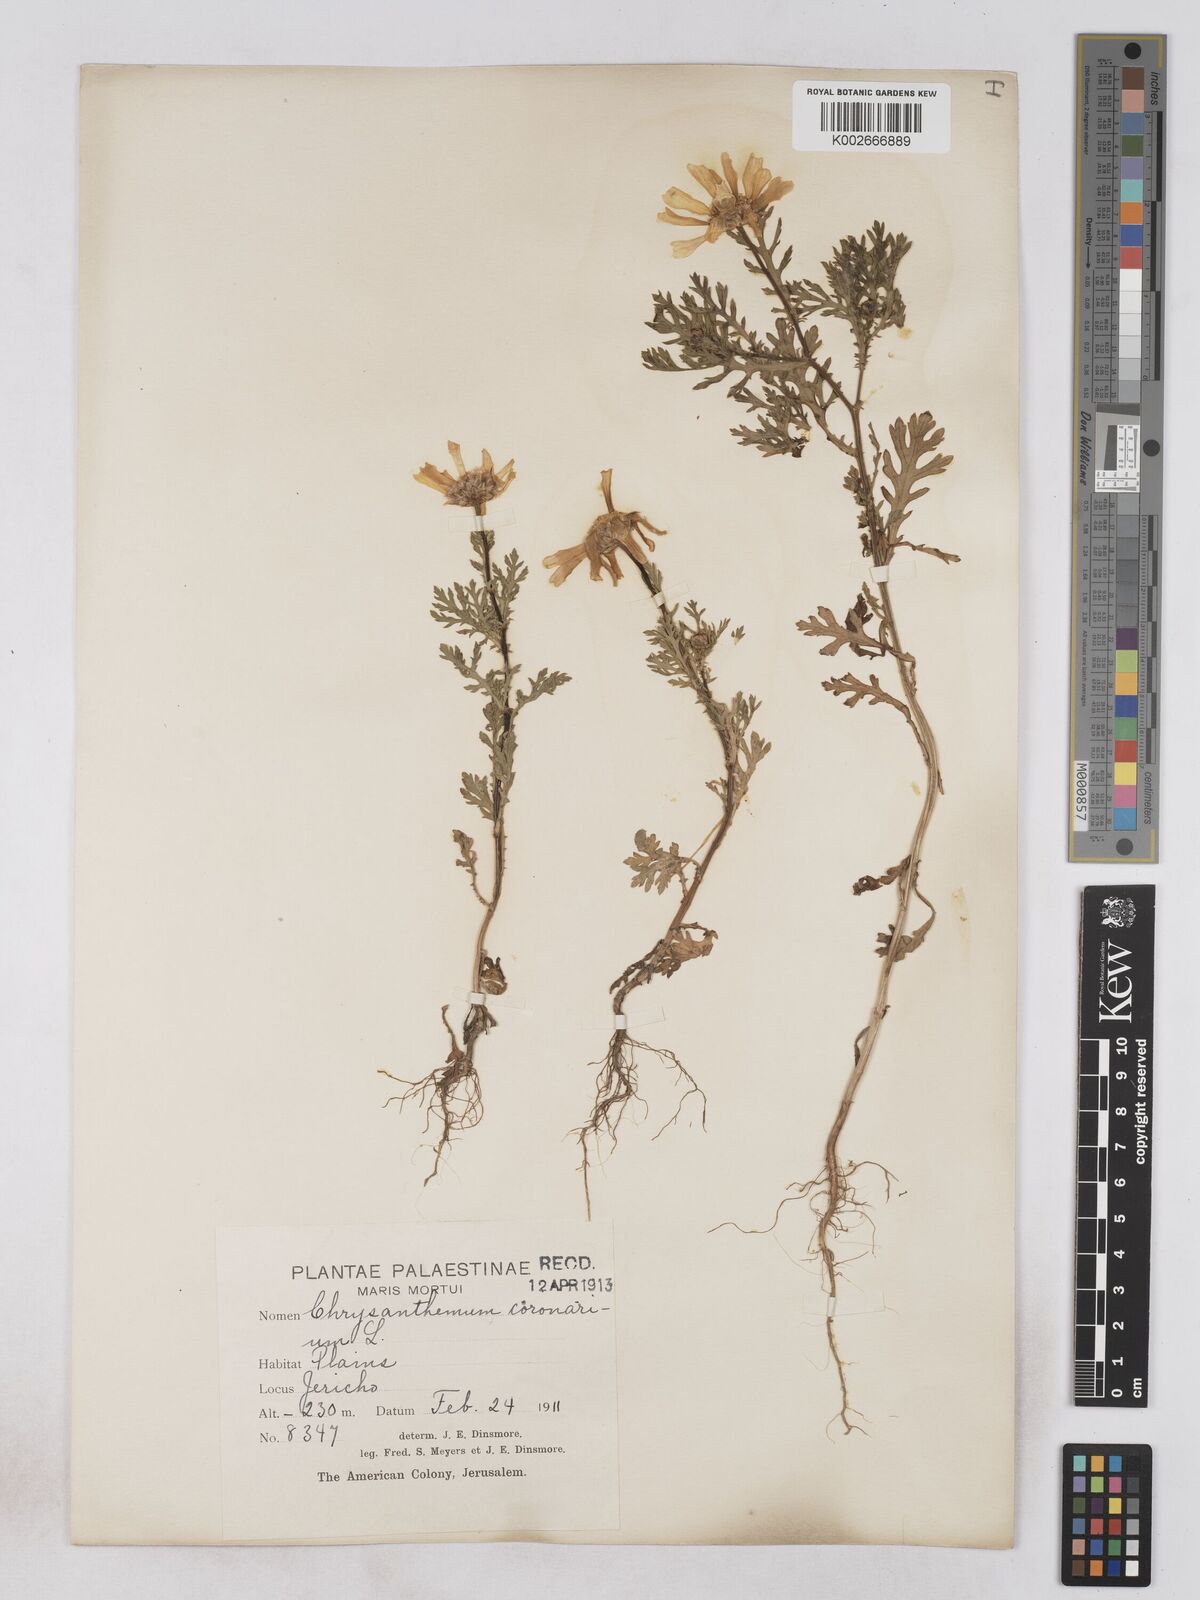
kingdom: Plantae
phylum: Tracheophyta
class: Magnoliopsida
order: Asterales
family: Asteraceae
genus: Glebionis
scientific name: Glebionis coronaria
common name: Crowndaisy
